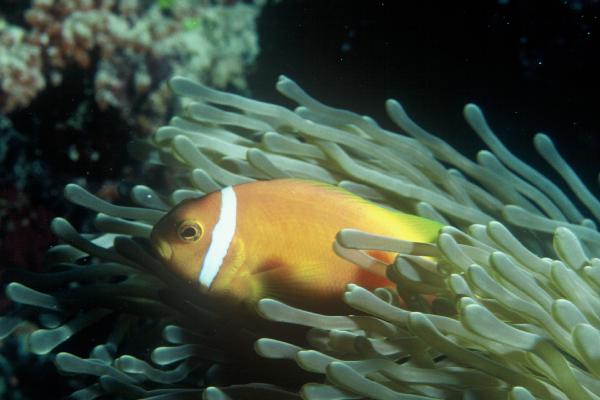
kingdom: Animalia
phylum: Chordata
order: Perciformes
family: Pomacentridae
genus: Amphiprion
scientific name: Amphiprion nigripes
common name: Maldive anemonefish
